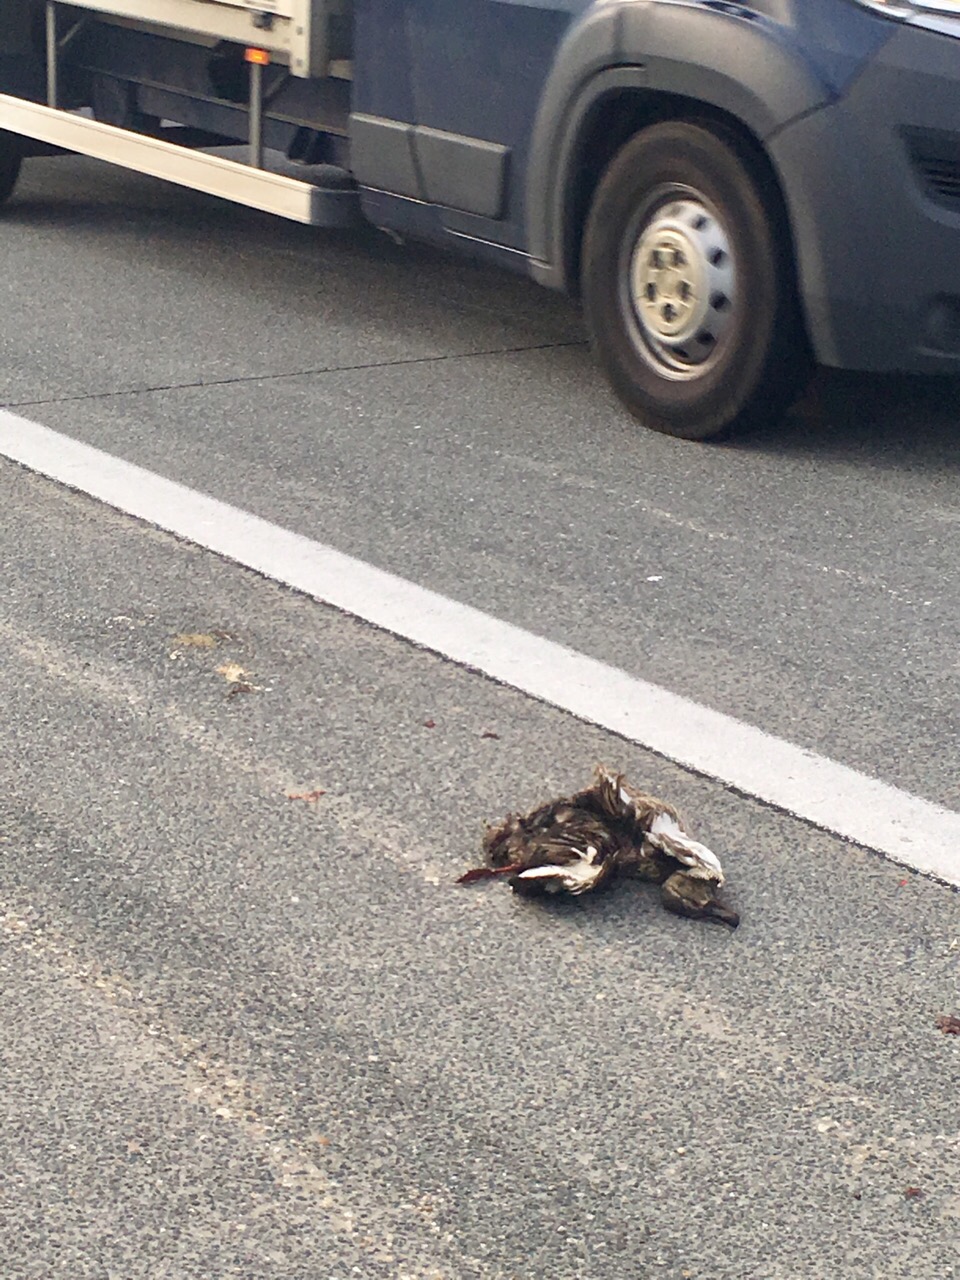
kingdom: Animalia
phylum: Chordata
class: Aves
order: Anseriformes
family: Anatidae
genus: Anas
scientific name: Anas platyrhynchos
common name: Mallard
